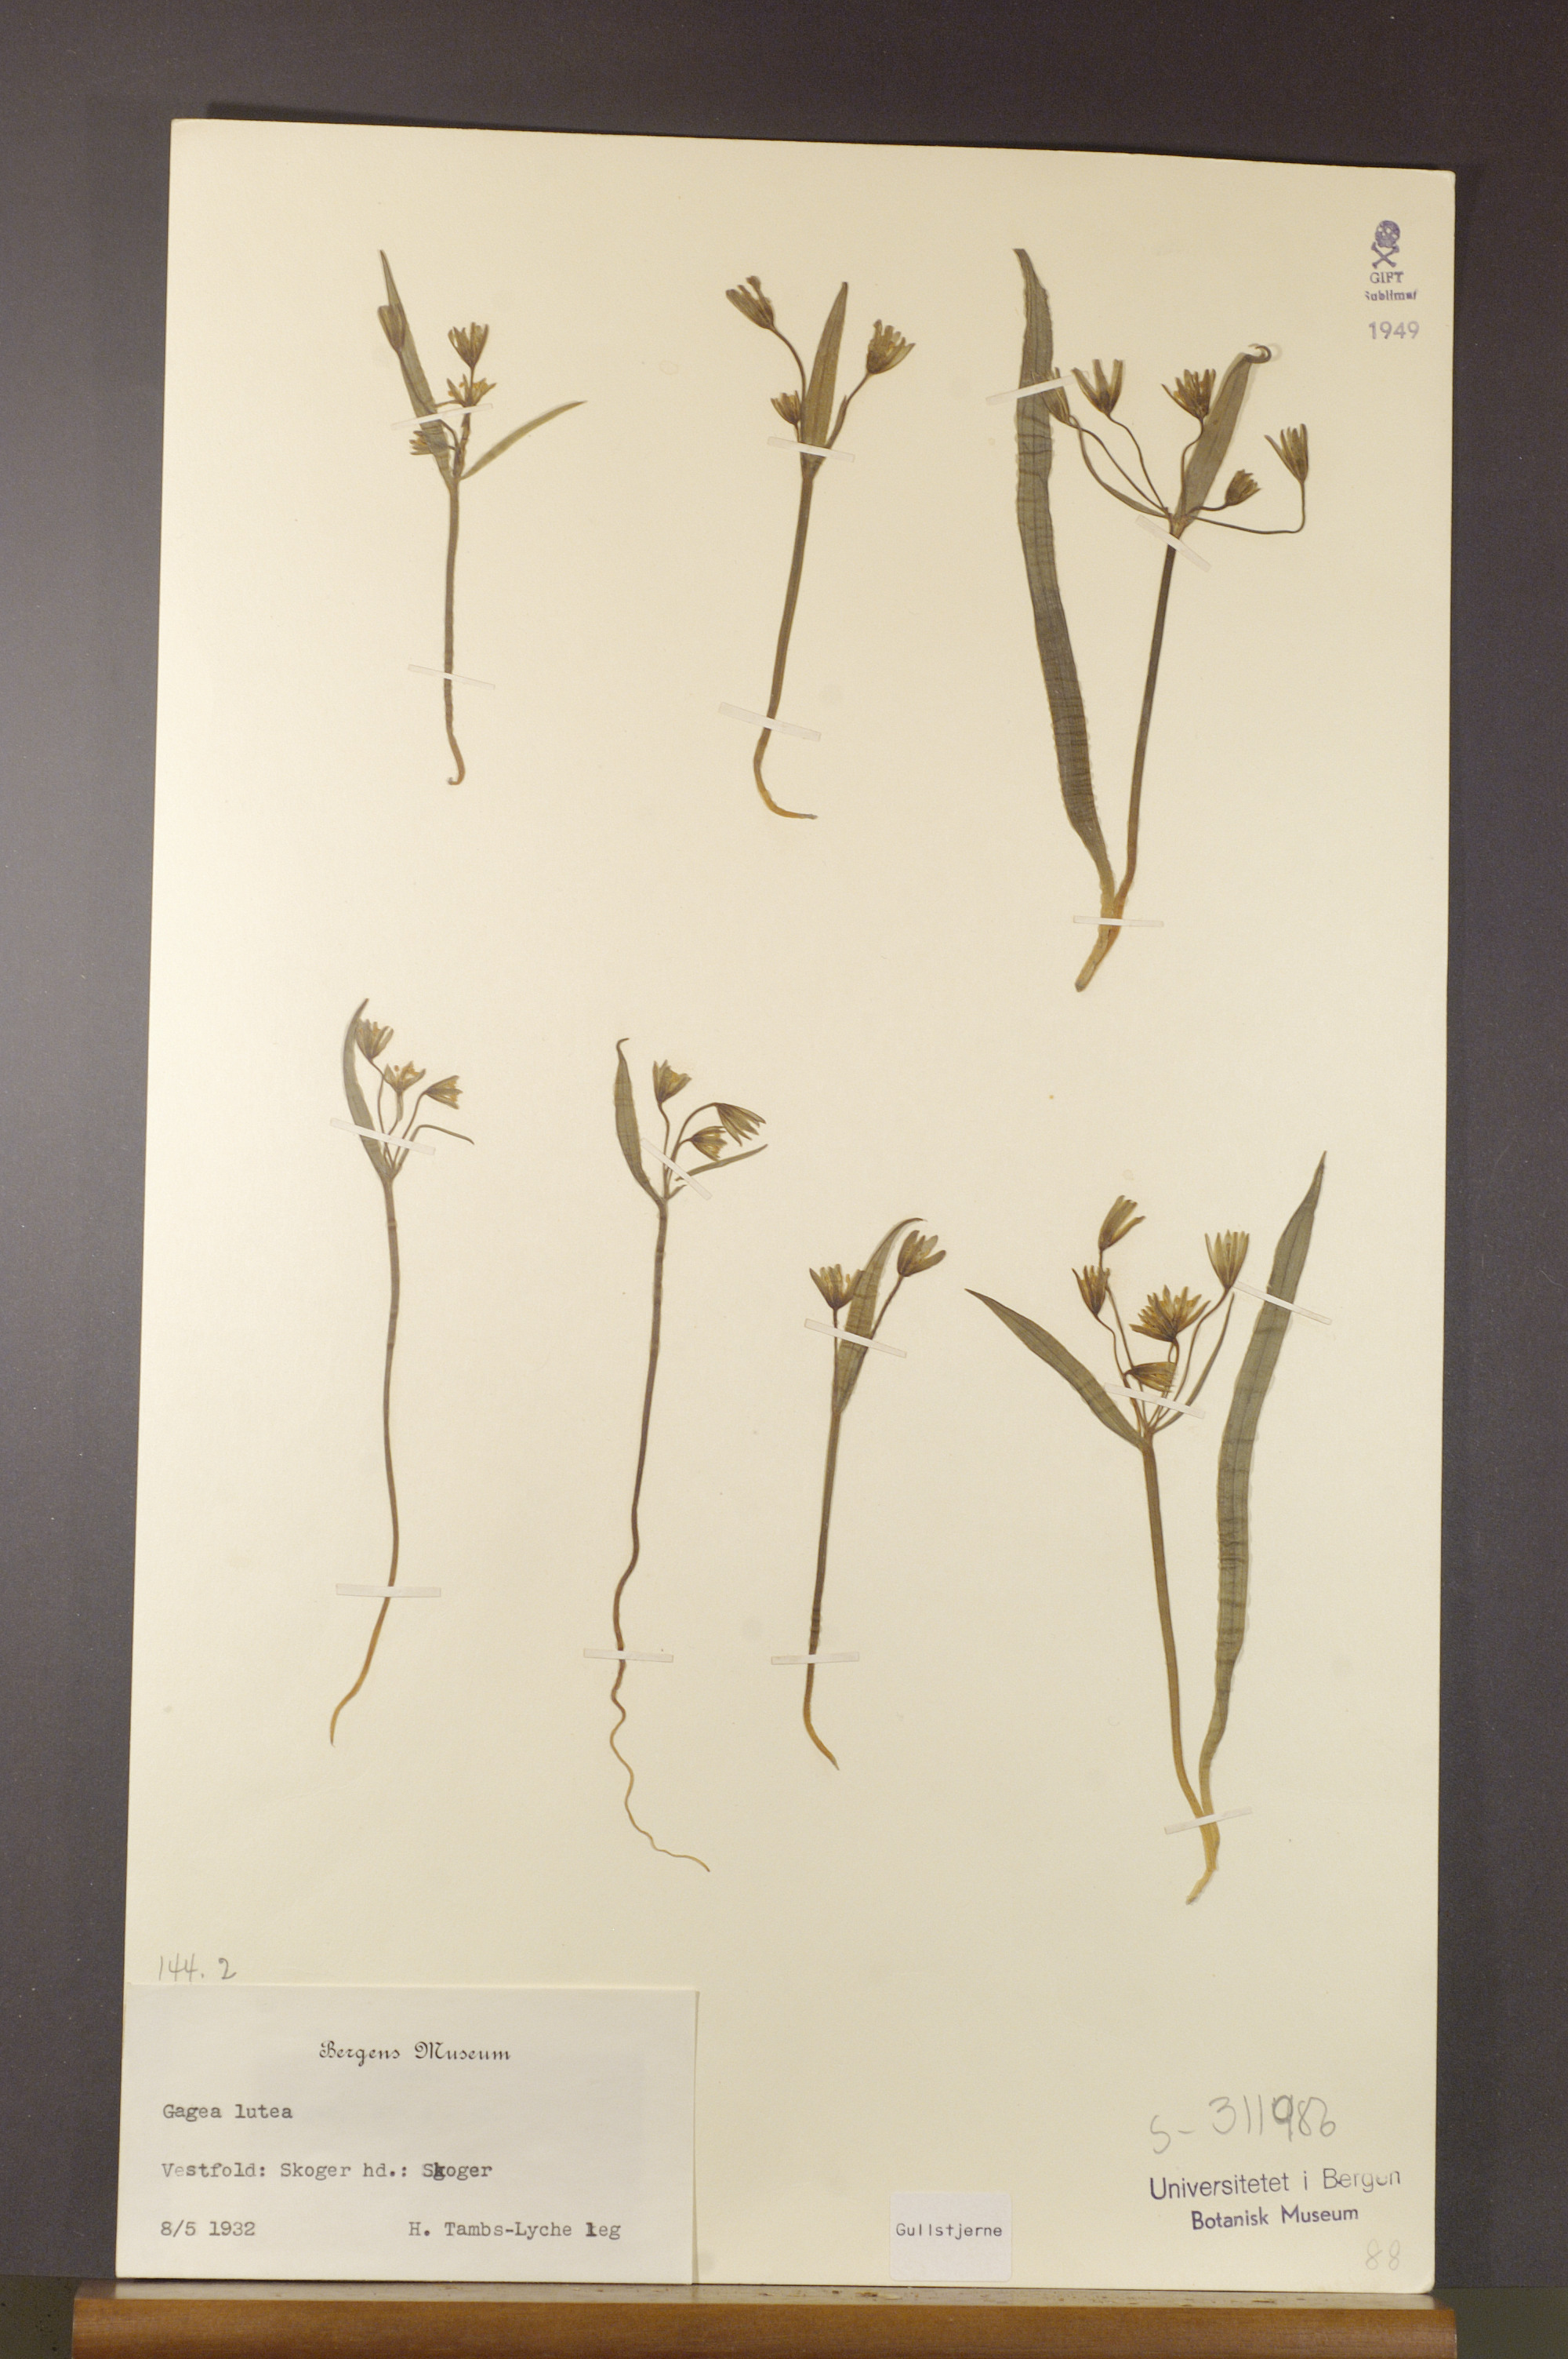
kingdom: Plantae
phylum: Tracheophyta
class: Liliopsida
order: Liliales
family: Liliaceae
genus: Gagea
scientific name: Gagea lutea
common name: Yellow star-of-bethlehem
